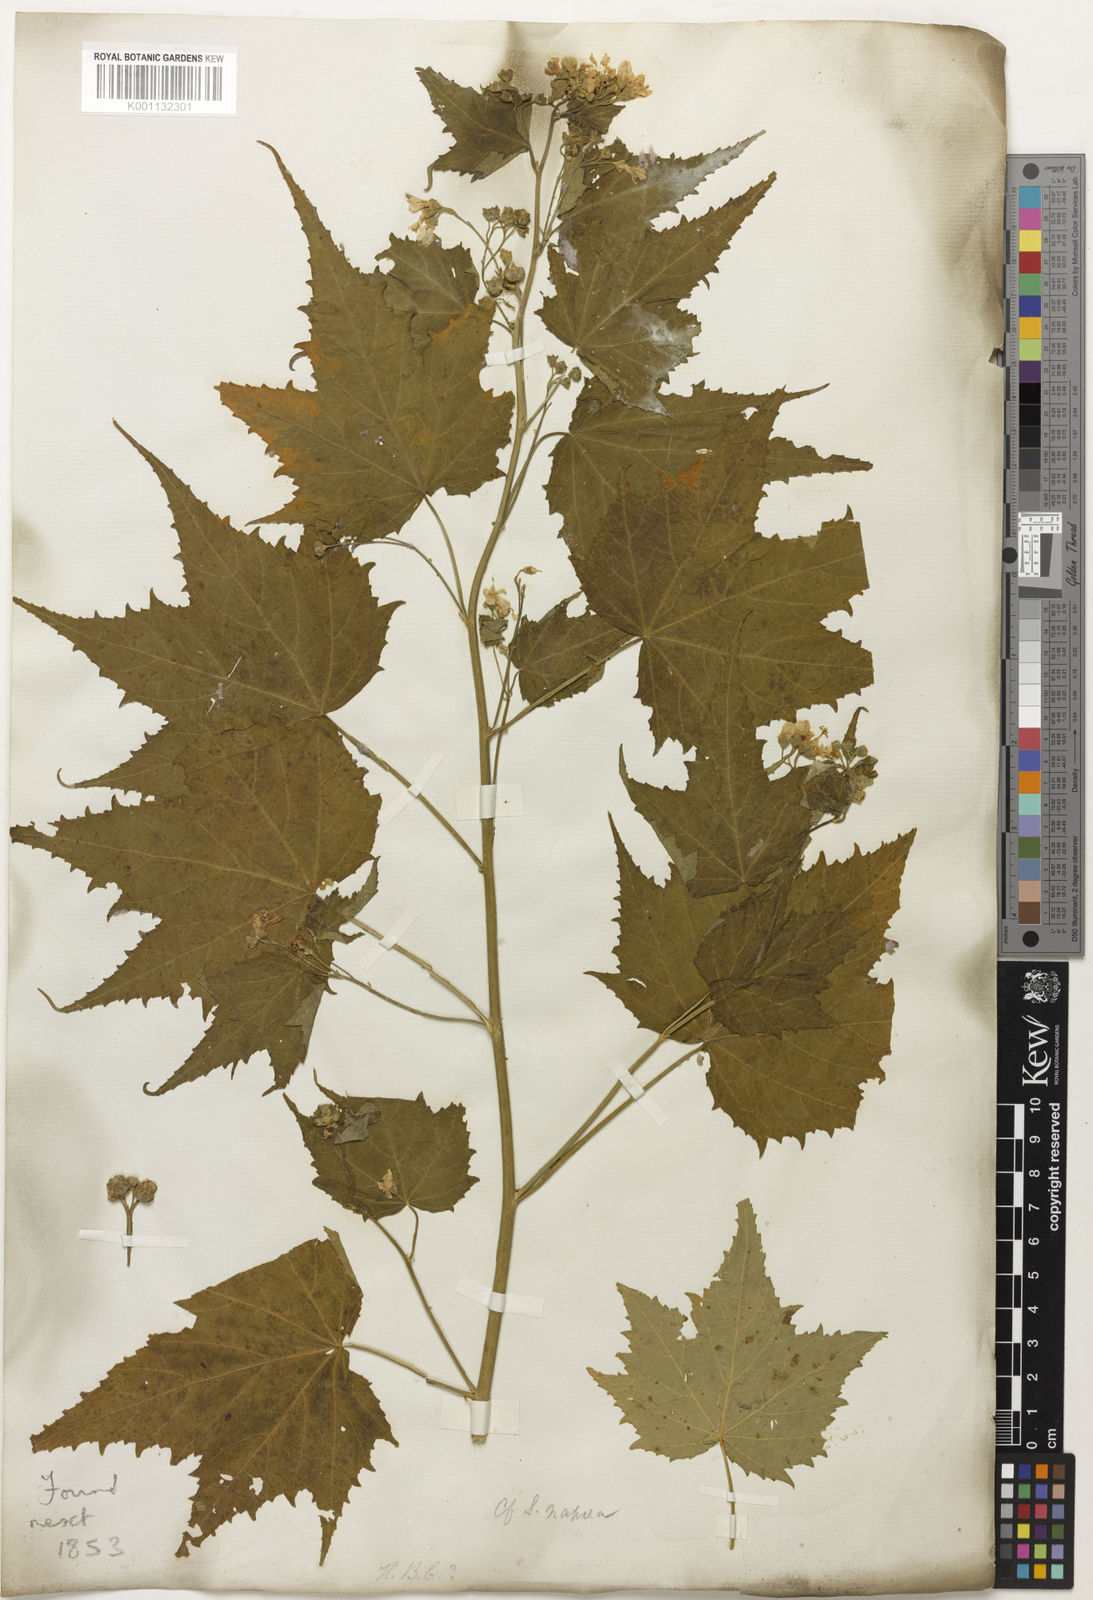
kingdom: Plantae
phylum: Tracheophyta
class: Magnoliopsida
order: Malvales
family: Malvaceae
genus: Sida
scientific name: Sida
